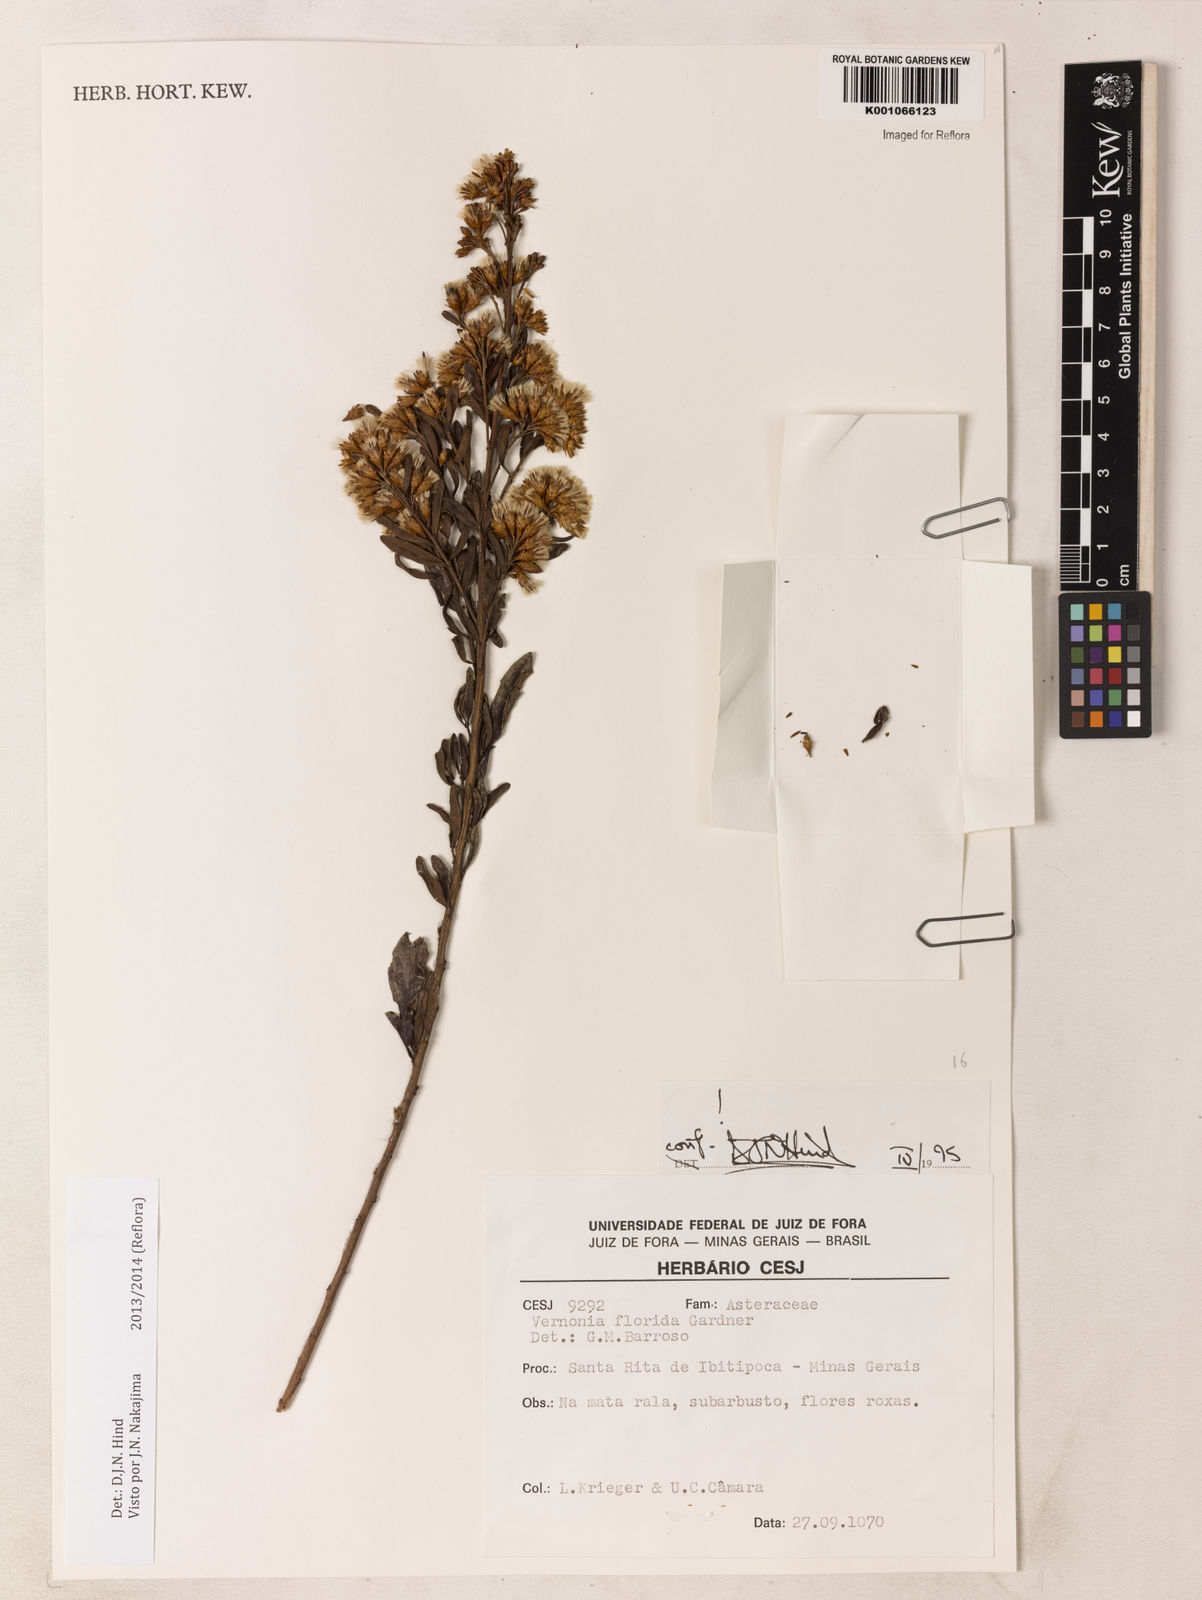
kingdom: Plantae
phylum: Tracheophyta
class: Magnoliopsida
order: Asterales
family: Asteraceae
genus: Vernonanthura
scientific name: Vernonanthura montevidensis
